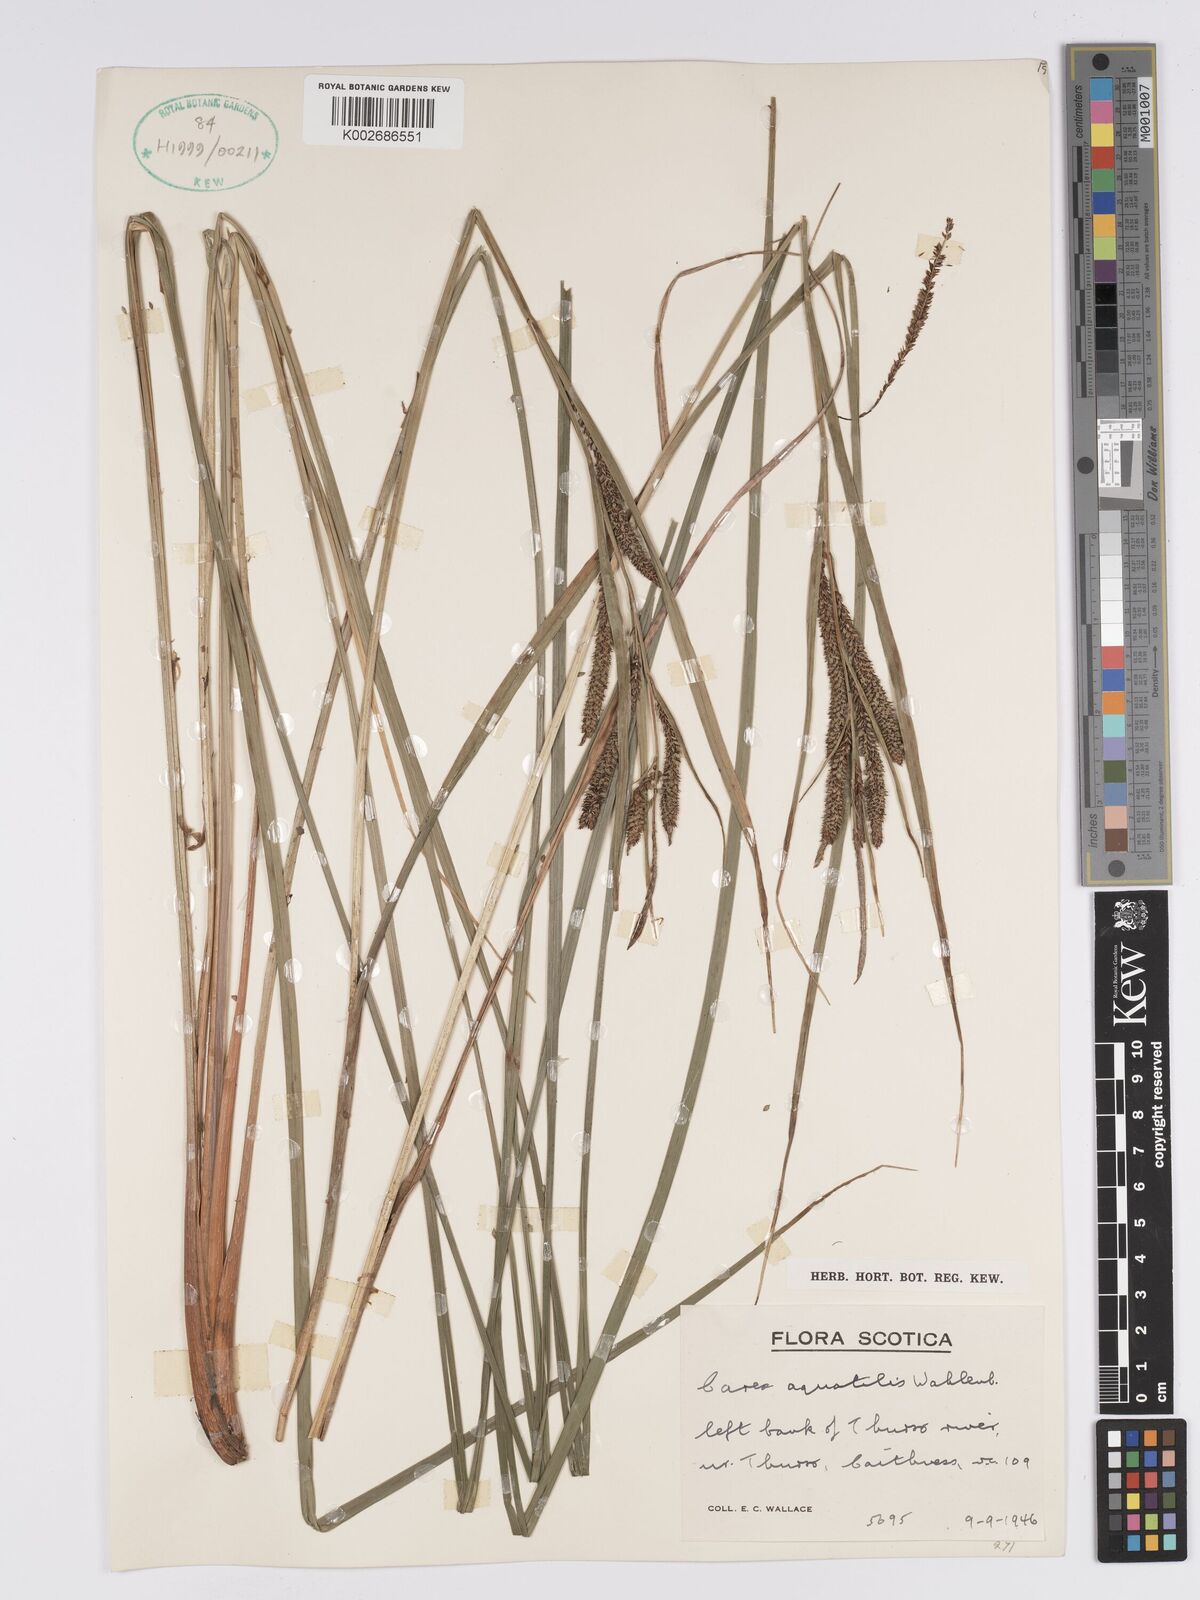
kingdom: Plantae
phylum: Tracheophyta
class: Liliopsida
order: Poales
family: Cyperaceae
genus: Carex
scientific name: Carex aquatilis
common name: Water sedge
